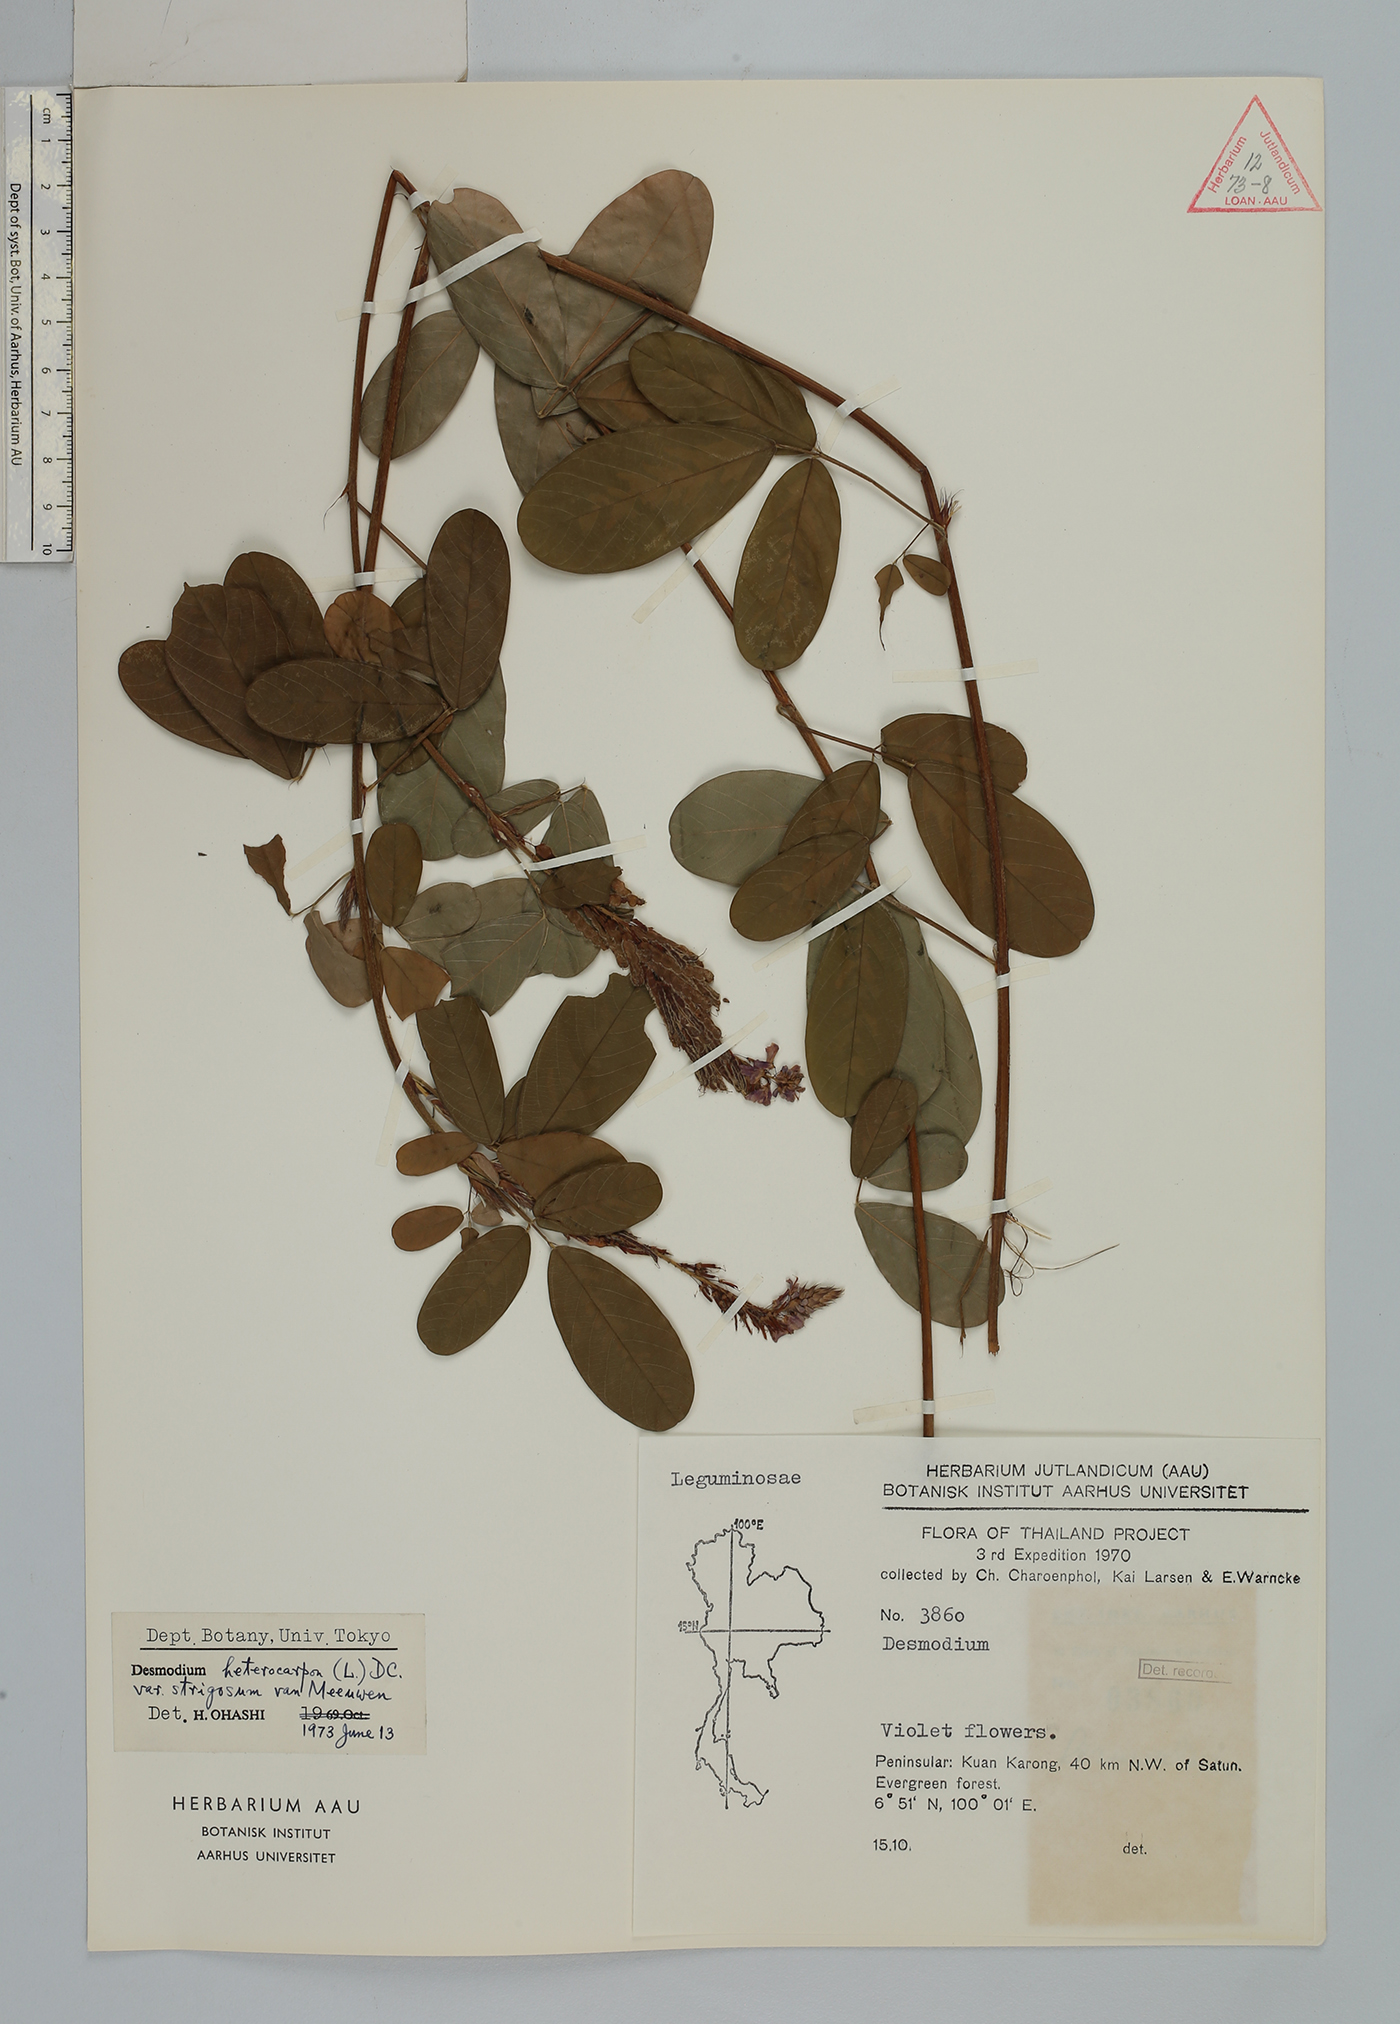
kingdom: Plantae
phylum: Tracheophyta
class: Magnoliopsida
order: Fabales
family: Fabaceae
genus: Grona
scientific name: Grona heterocarpos
